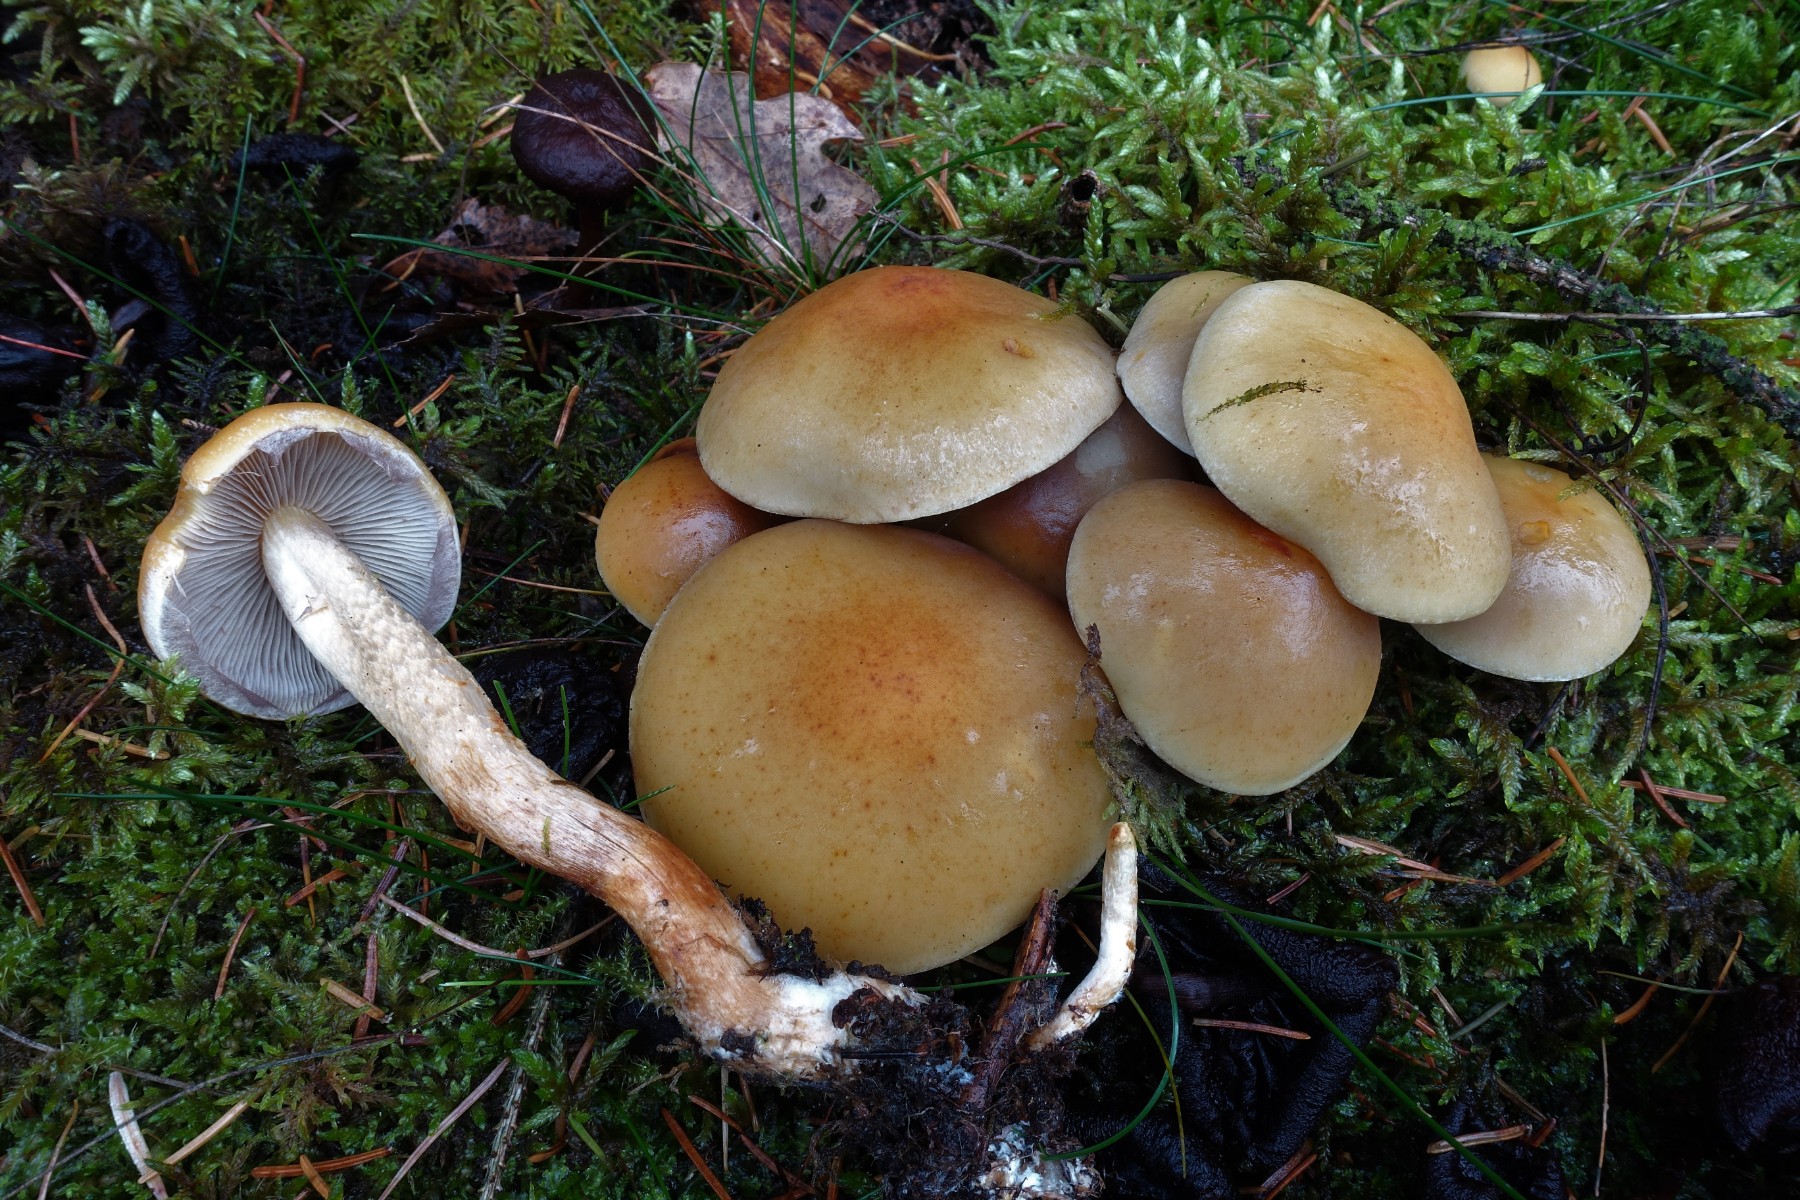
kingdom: Fungi
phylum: Basidiomycota
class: Agaricomycetes
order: Agaricales
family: Strophariaceae
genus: Hypholoma
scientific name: Hypholoma capnoides
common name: gran-svovlhat
